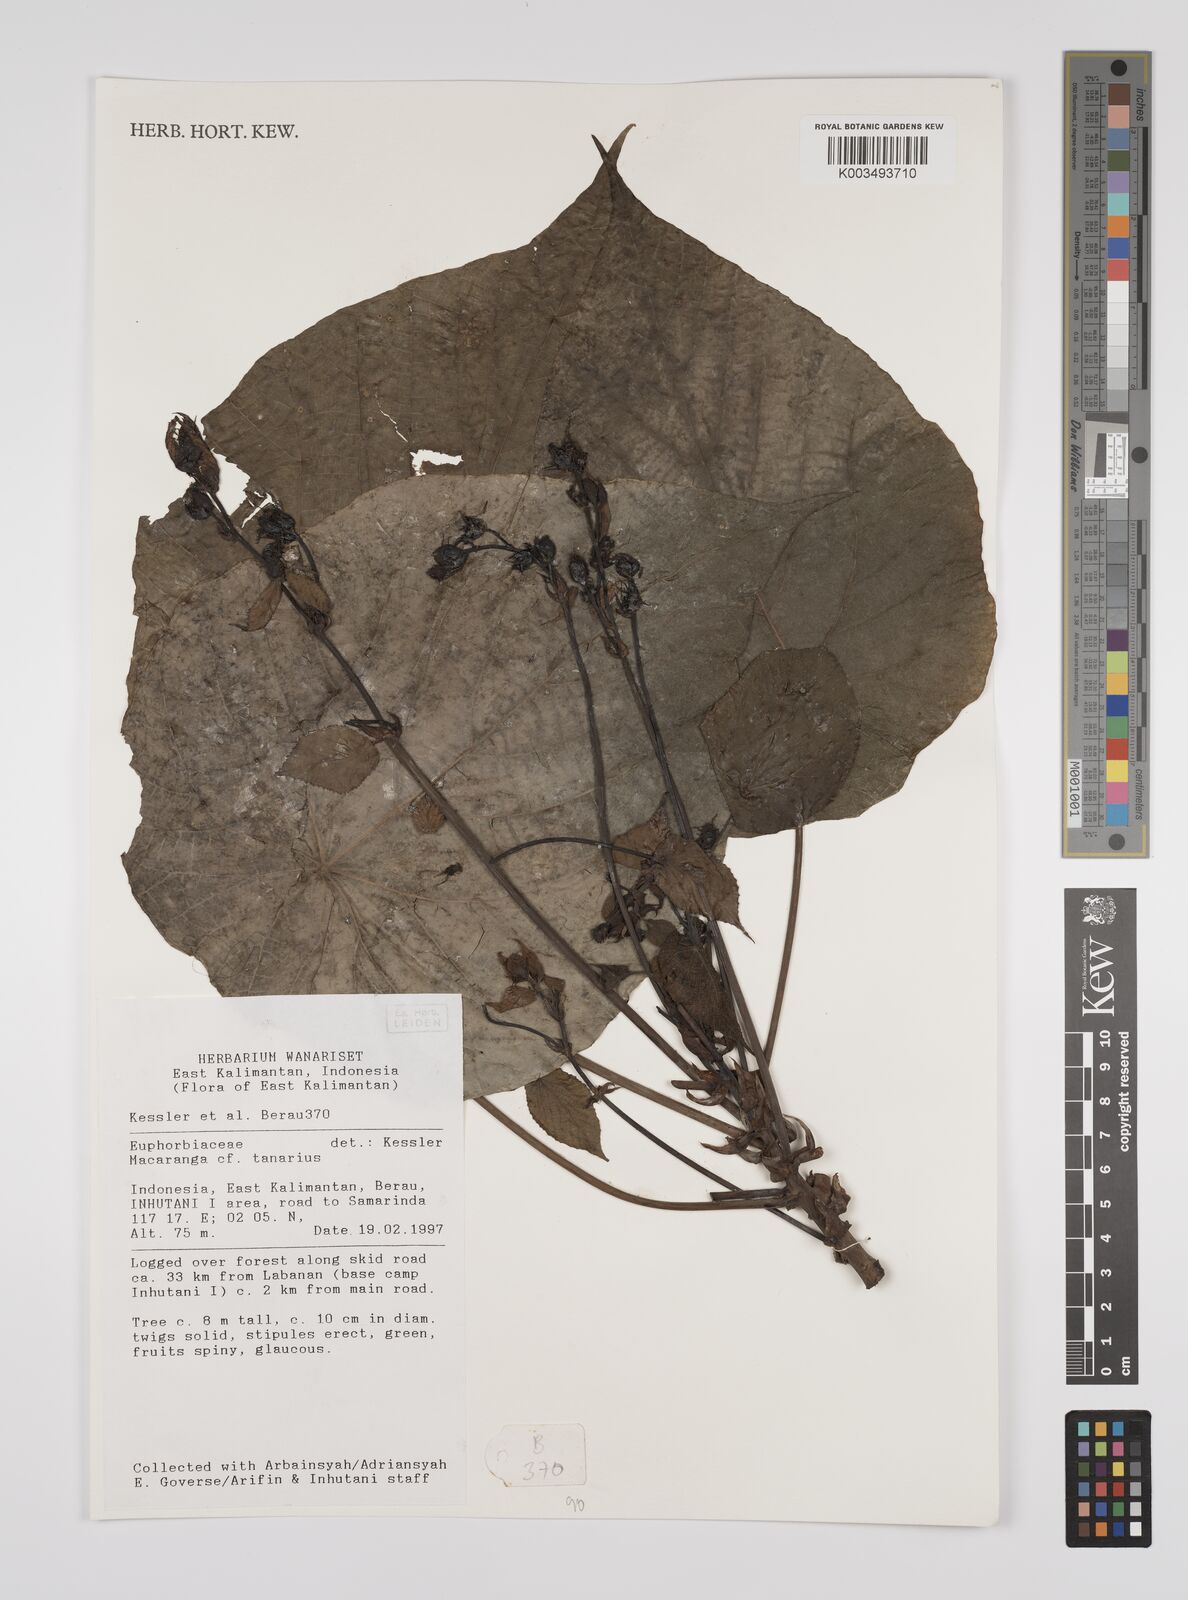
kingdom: Plantae
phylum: Tracheophyta
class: Magnoliopsida
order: Malpighiales
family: Euphorbiaceae
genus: Macaranga
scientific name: Macaranga tanarius
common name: Parasol leaf tree
